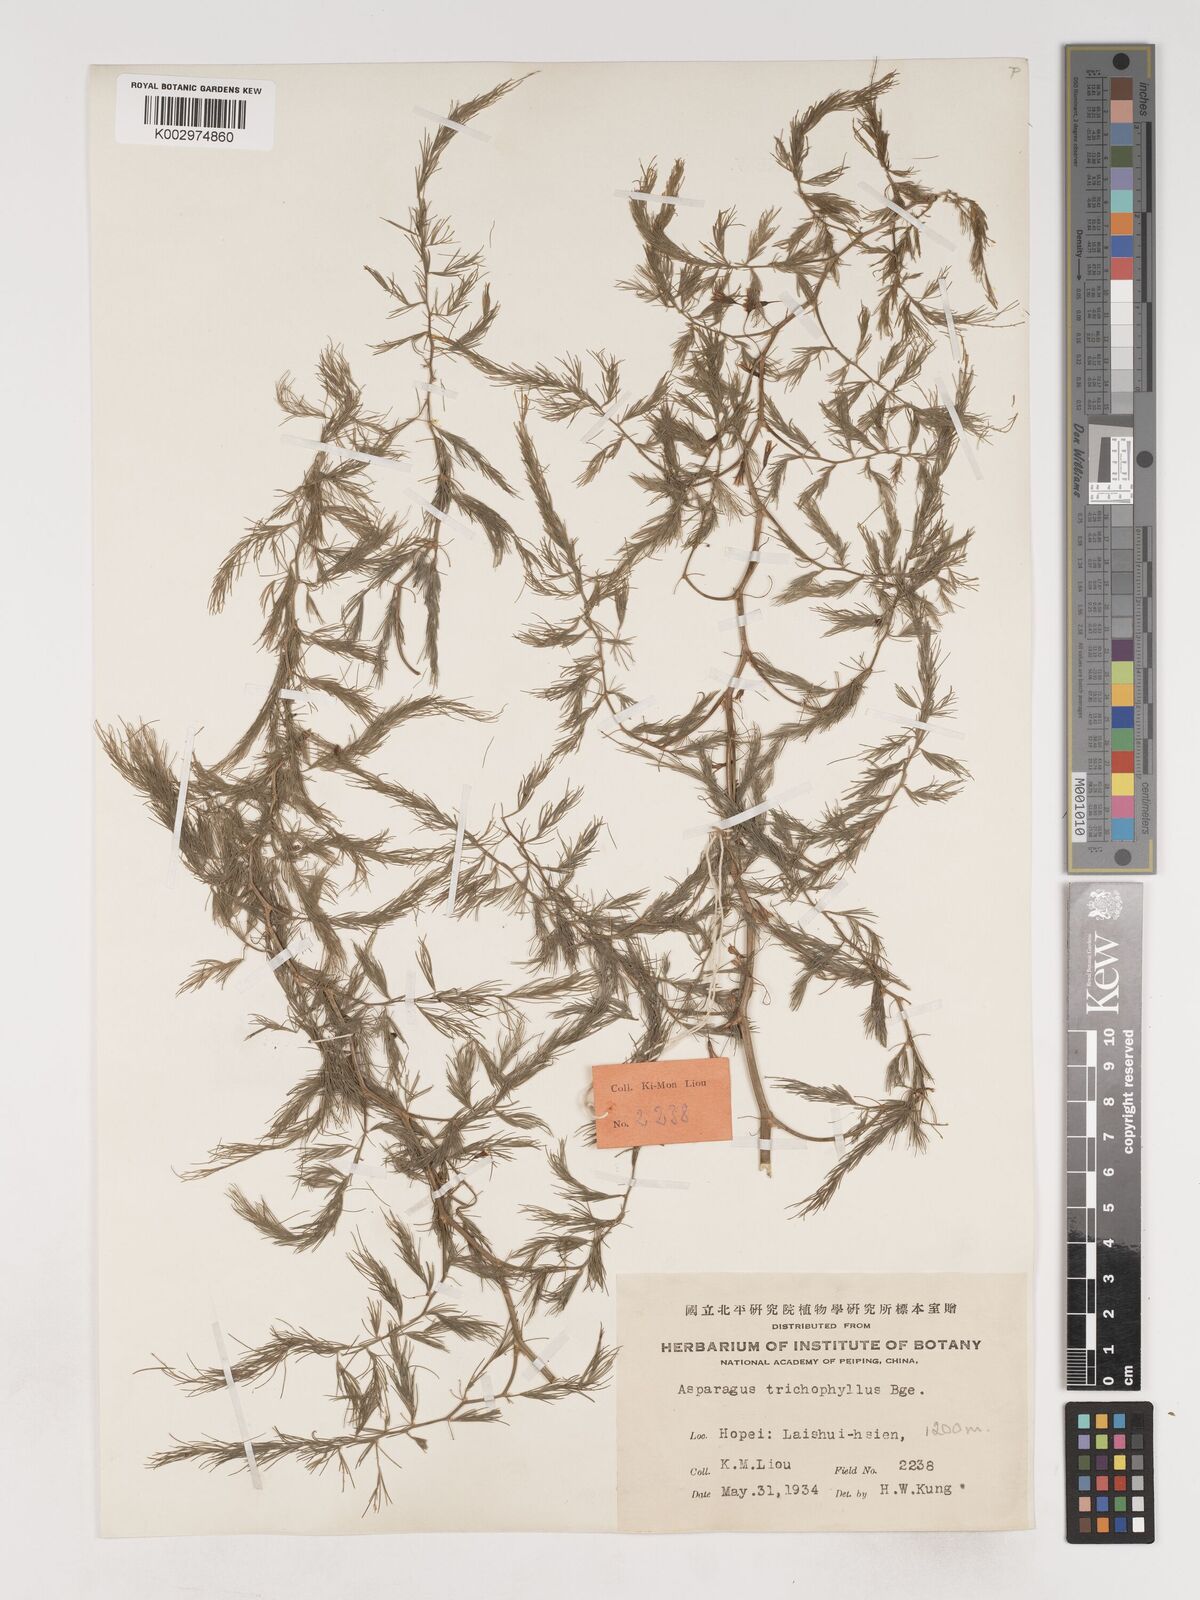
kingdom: Plantae
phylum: Tracheophyta
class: Liliopsida
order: Asparagales
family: Asparagaceae
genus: Asparagus
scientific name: Asparagus trichophyllus
